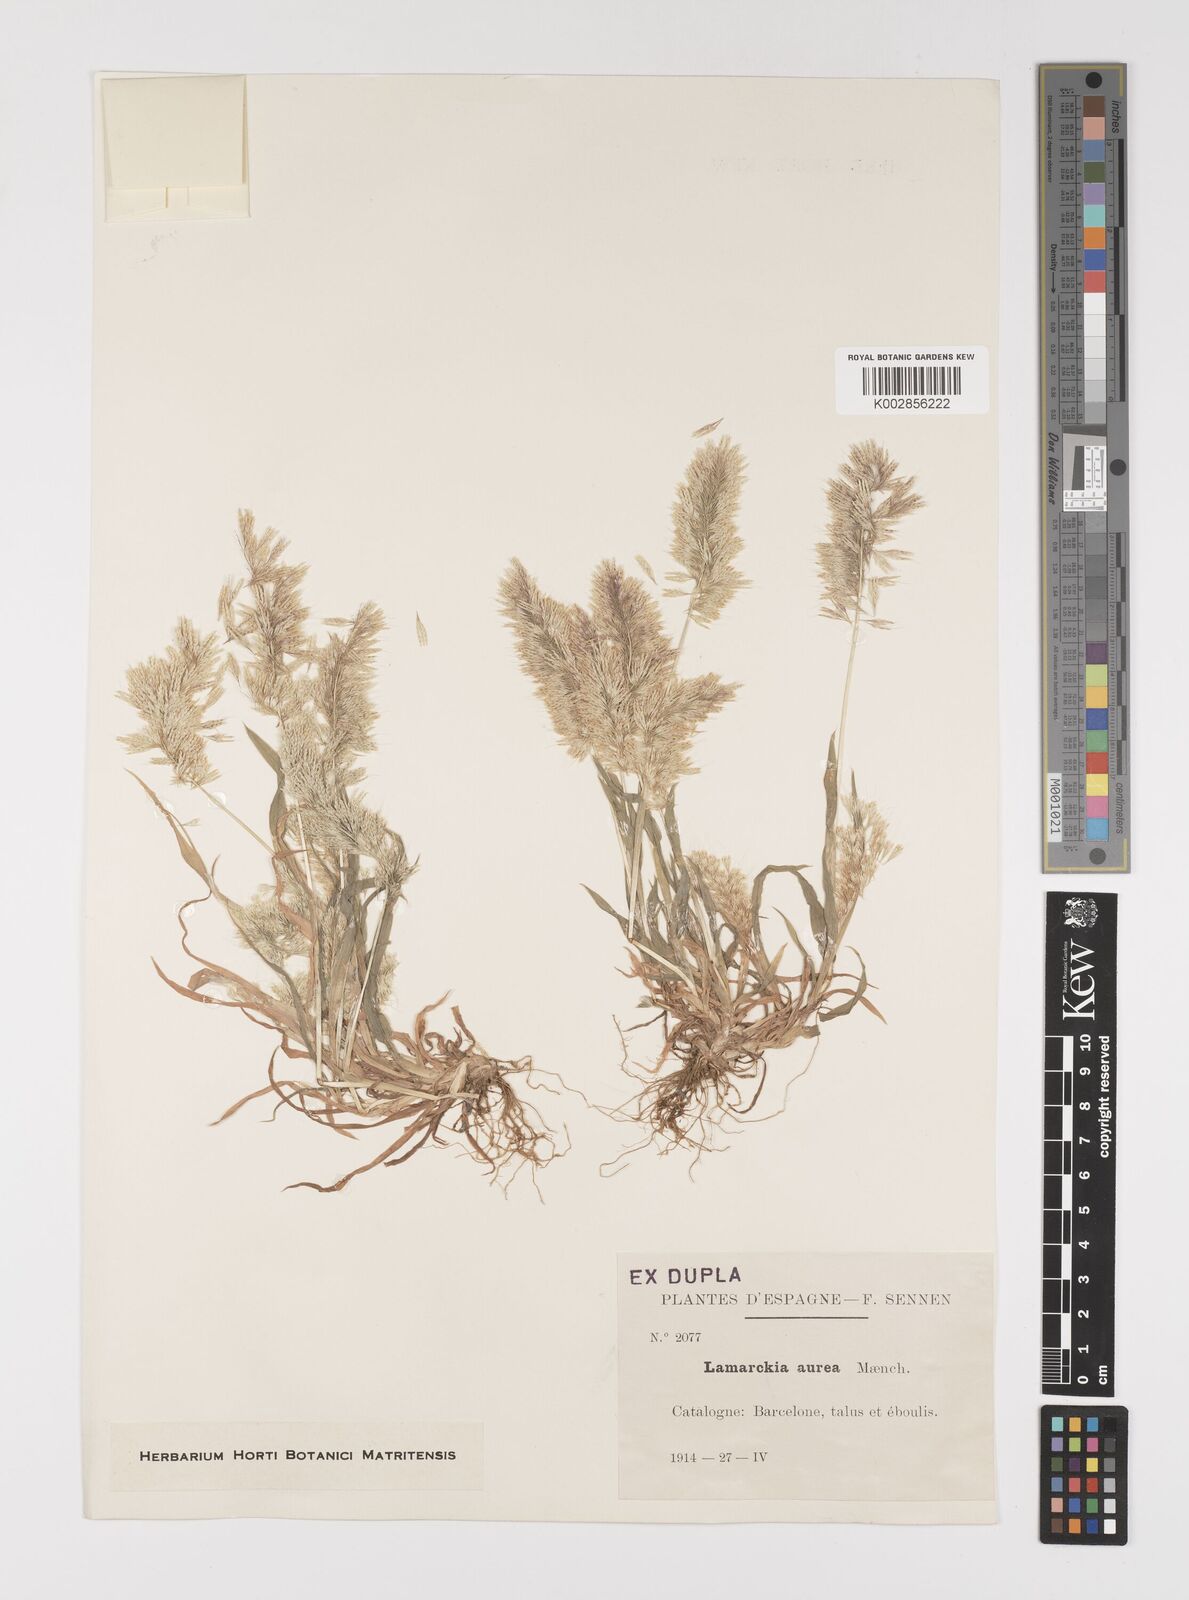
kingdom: Plantae
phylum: Tracheophyta
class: Liliopsida
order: Poales
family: Poaceae
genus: Lamarckia
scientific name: Lamarckia aurea
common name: Golden dog's-tail
